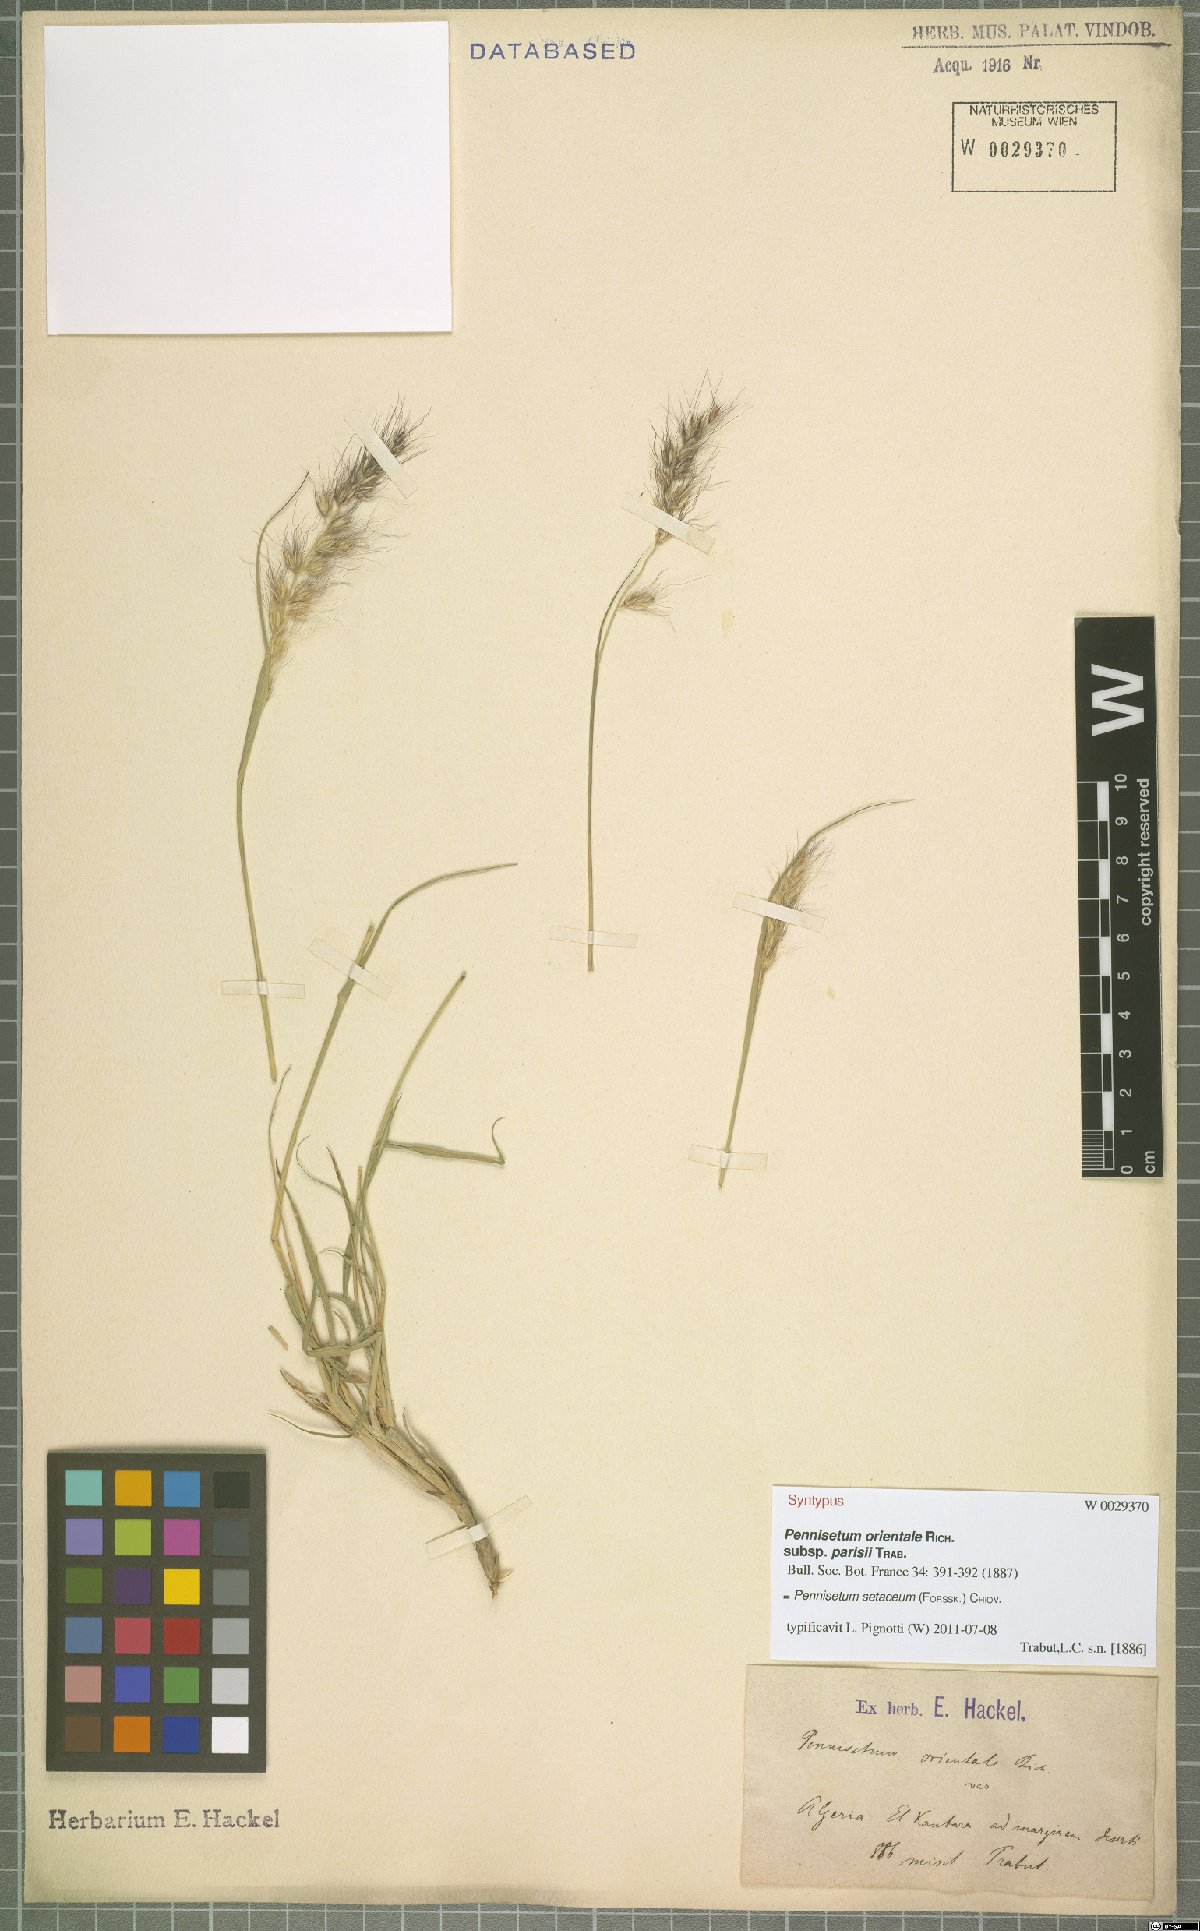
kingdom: Plantae
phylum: Tracheophyta
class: Liliopsida
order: Poales
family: Poaceae
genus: Cenchrus
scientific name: Cenchrus setaceus
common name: Crimson fountaingrass
